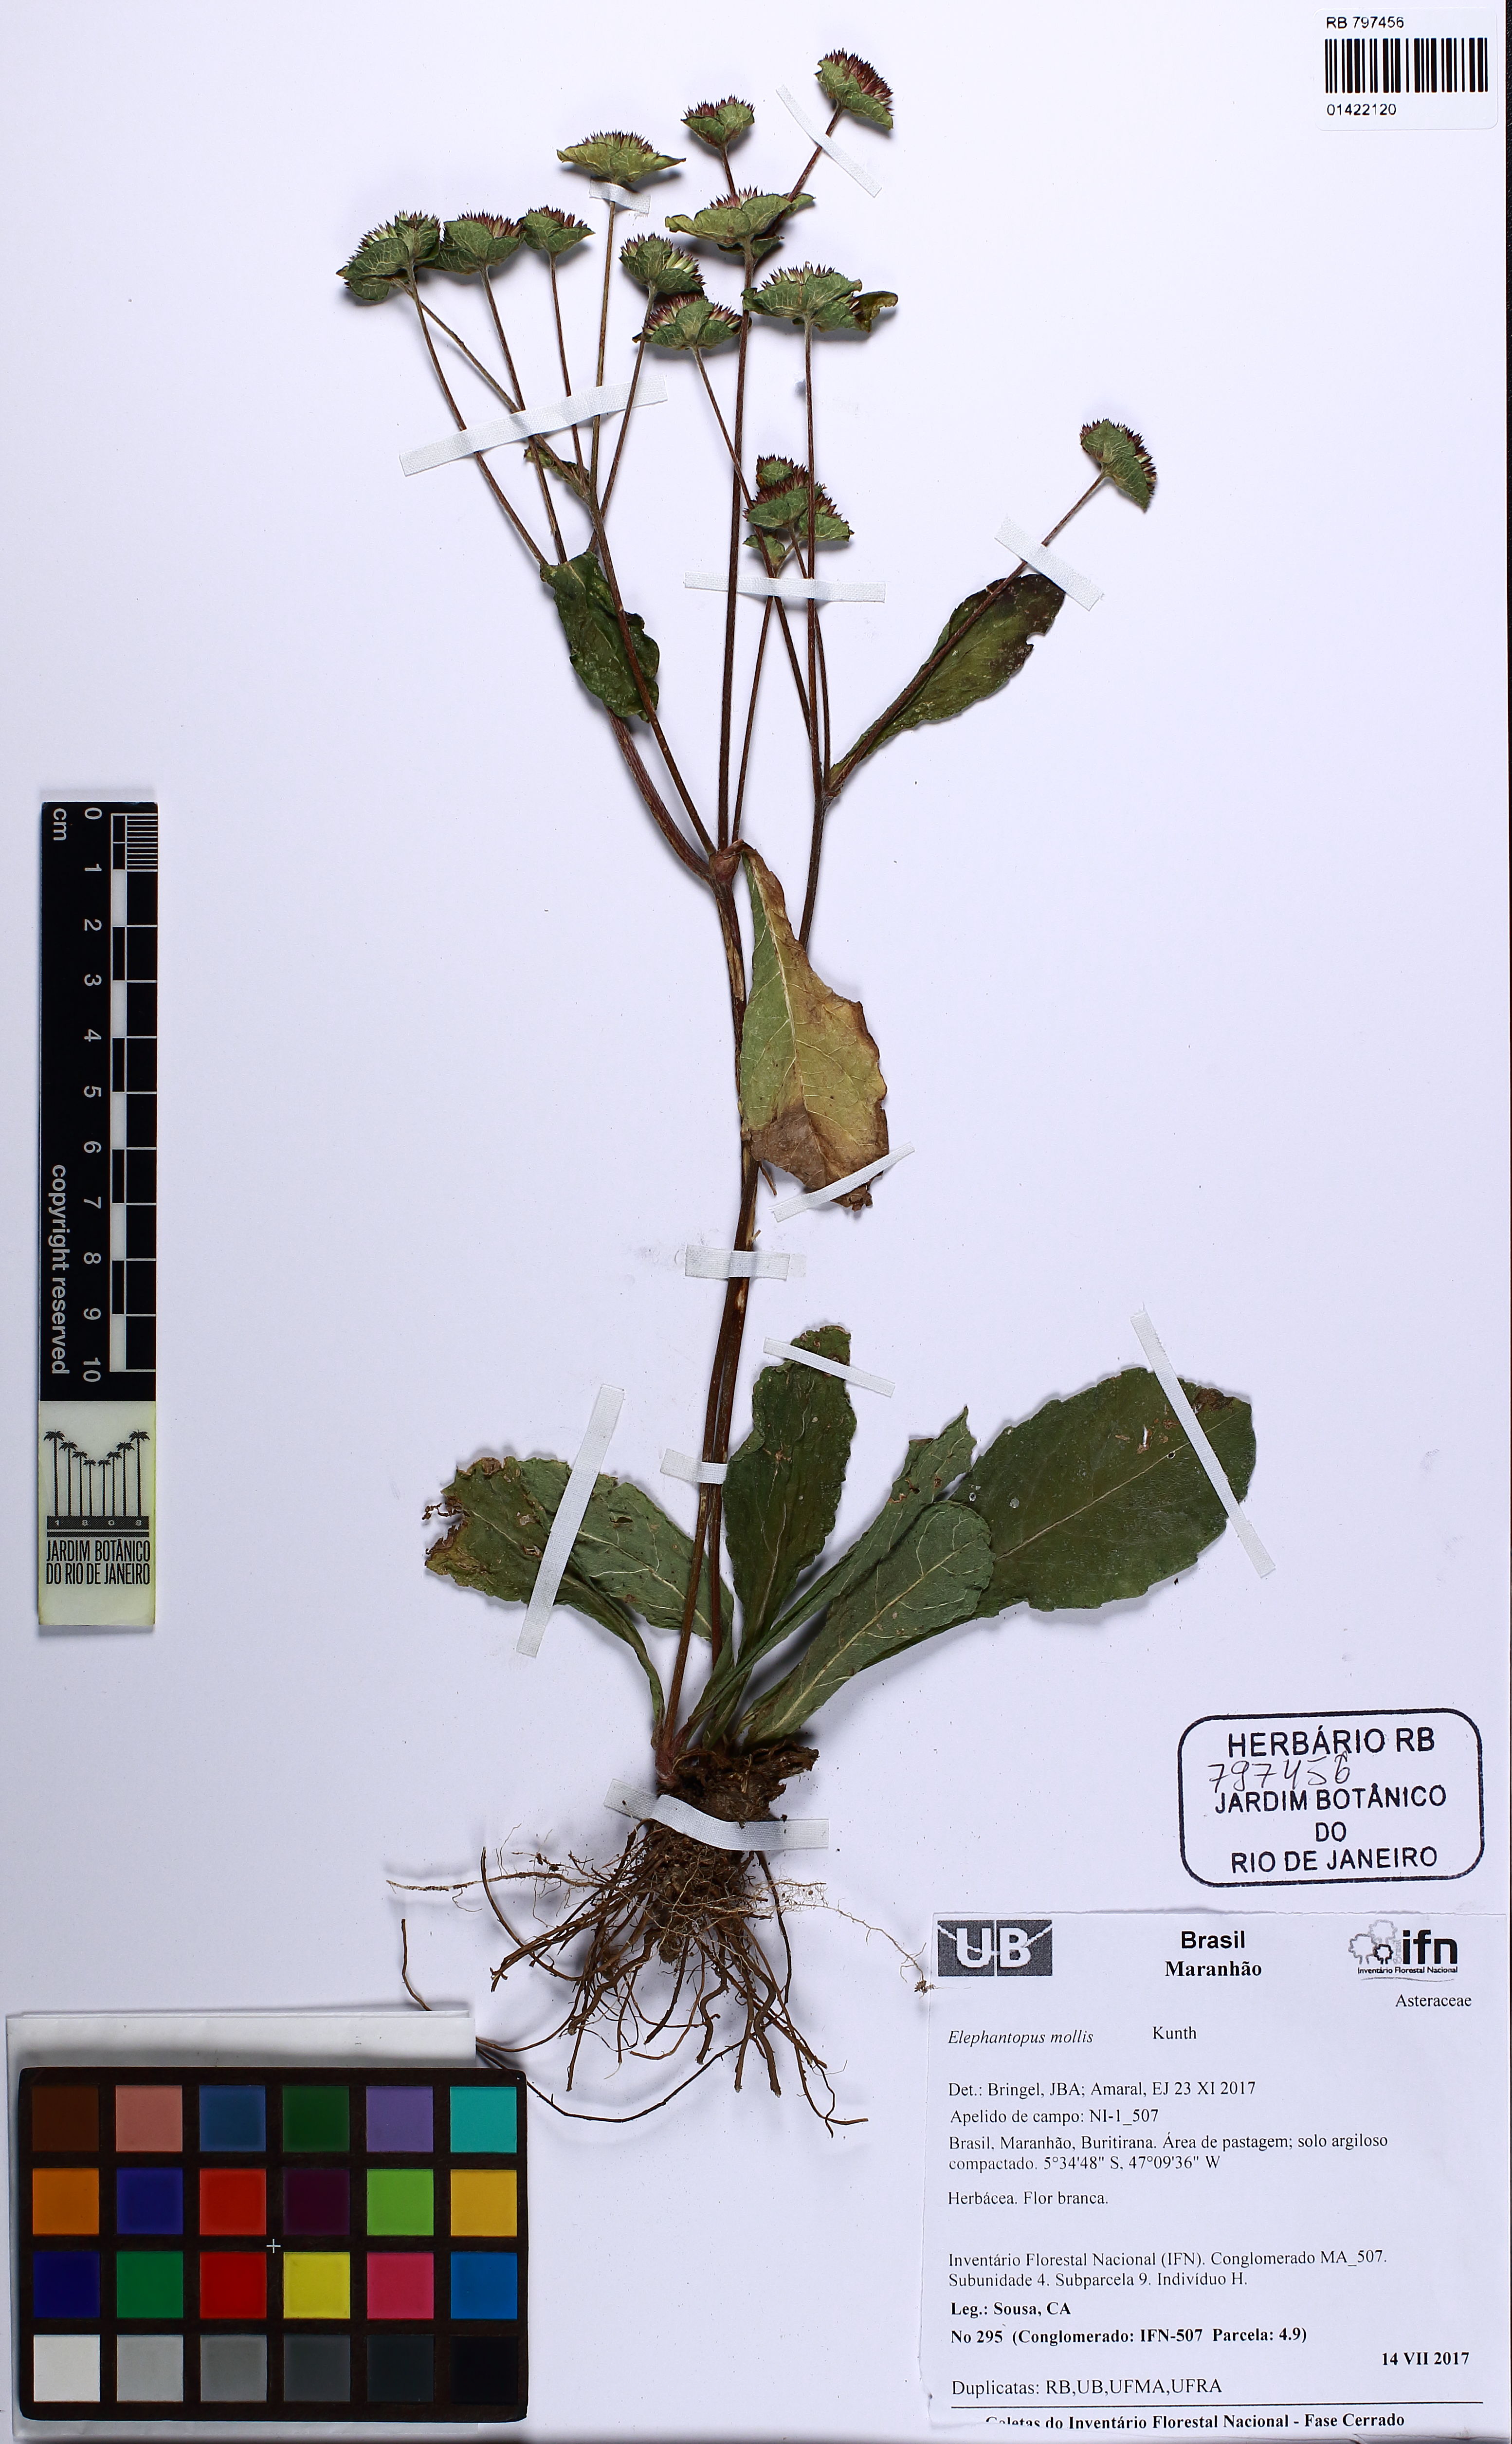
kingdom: Plantae
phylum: Tracheophyta
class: Magnoliopsida
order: Asterales
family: Asteraceae
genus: Elephantopus
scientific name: Elephantopus mollis
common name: Soft elephantsfoot
